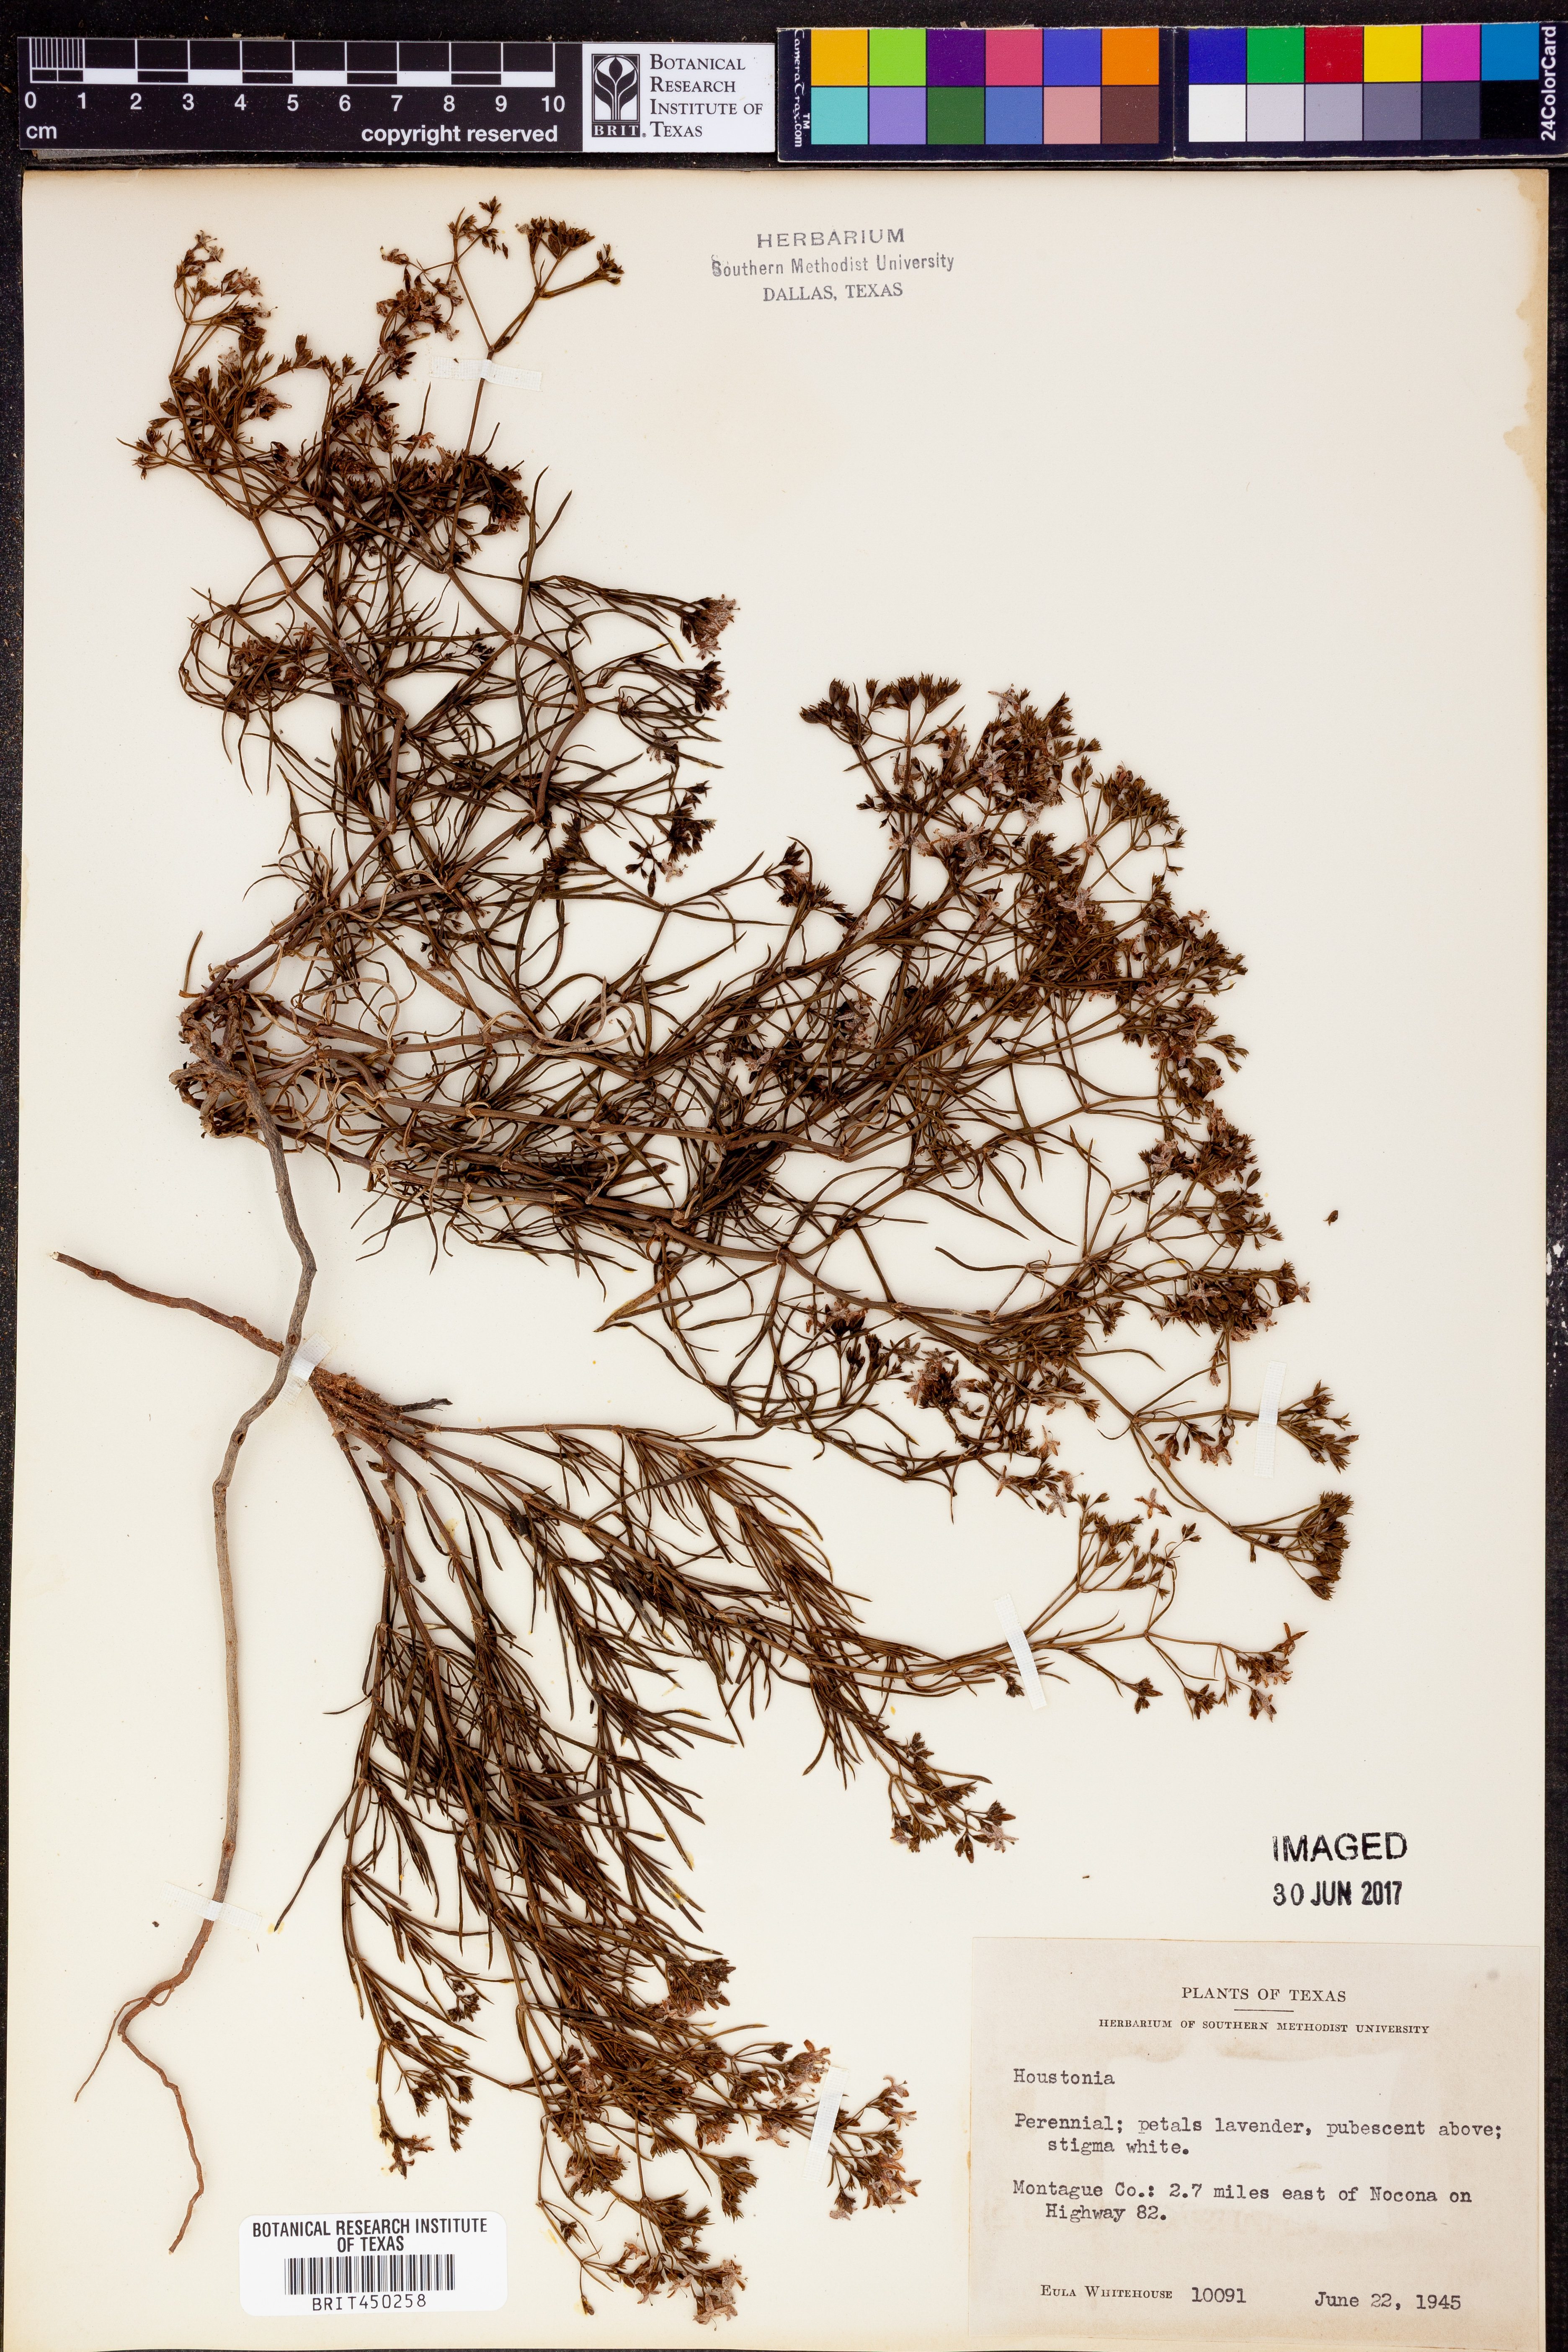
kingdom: Plantae
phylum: Tracheophyta
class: Magnoliopsida
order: Gentianales
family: Rubiaceae
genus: Houstonia
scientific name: Houstonia
